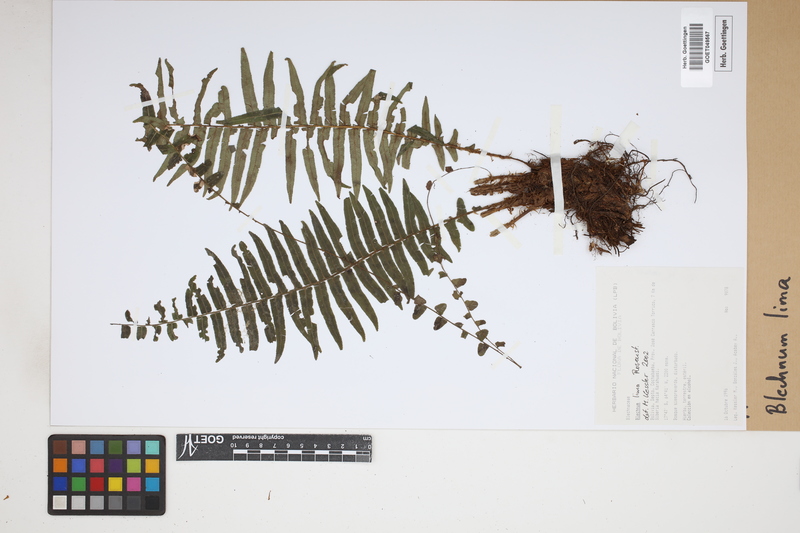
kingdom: Plantae
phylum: Tracheophyta
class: Polypodiopsida
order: Polypodiales
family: Blechnaceae
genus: Parablechnum
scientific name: Parablechnum lima
